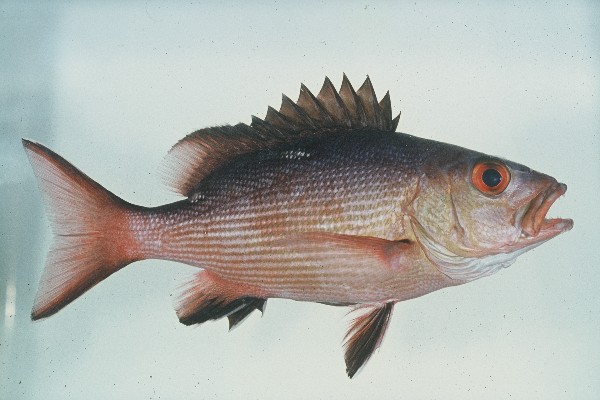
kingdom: Animalia
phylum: Chordata
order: Perciformes
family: Lutjanidae
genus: Lutjanus
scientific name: Lutjanus bohar
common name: Red bass
